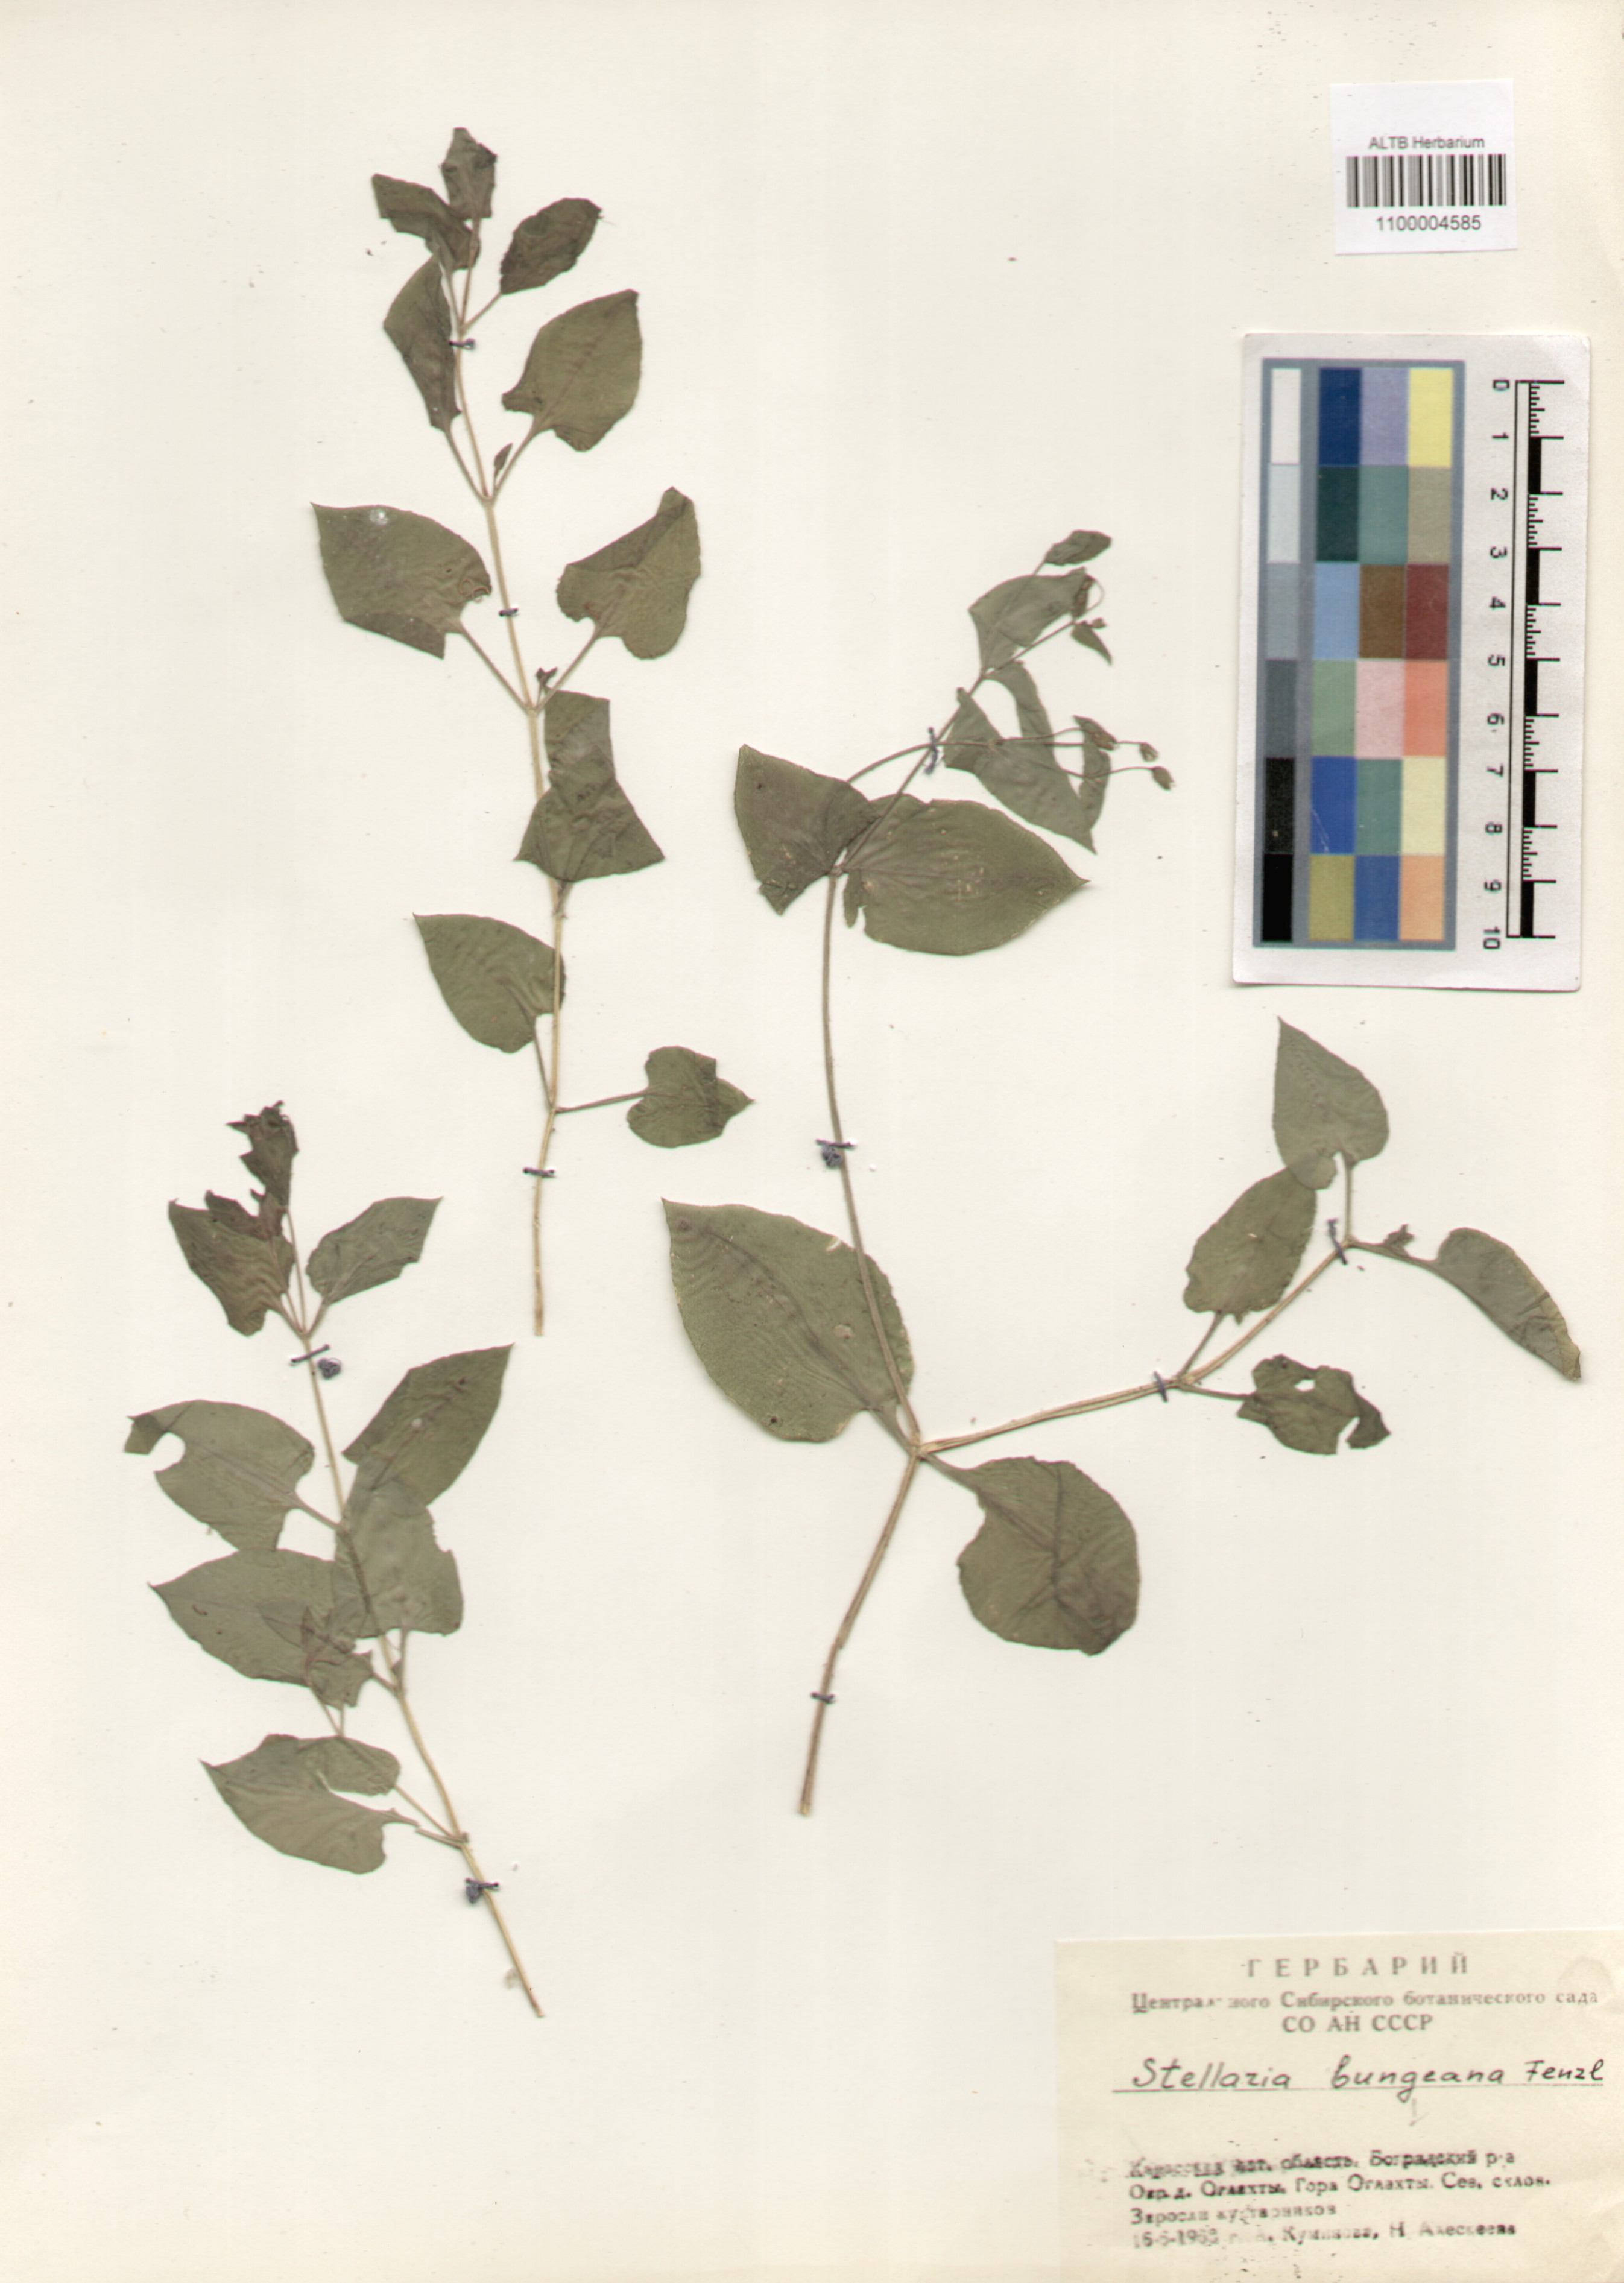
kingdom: Plantae
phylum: Tracheophyta
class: Magnoliopsida
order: Caryophyllales
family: Caryophyllaceae
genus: Stellaria
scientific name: Stellaria bungeana
